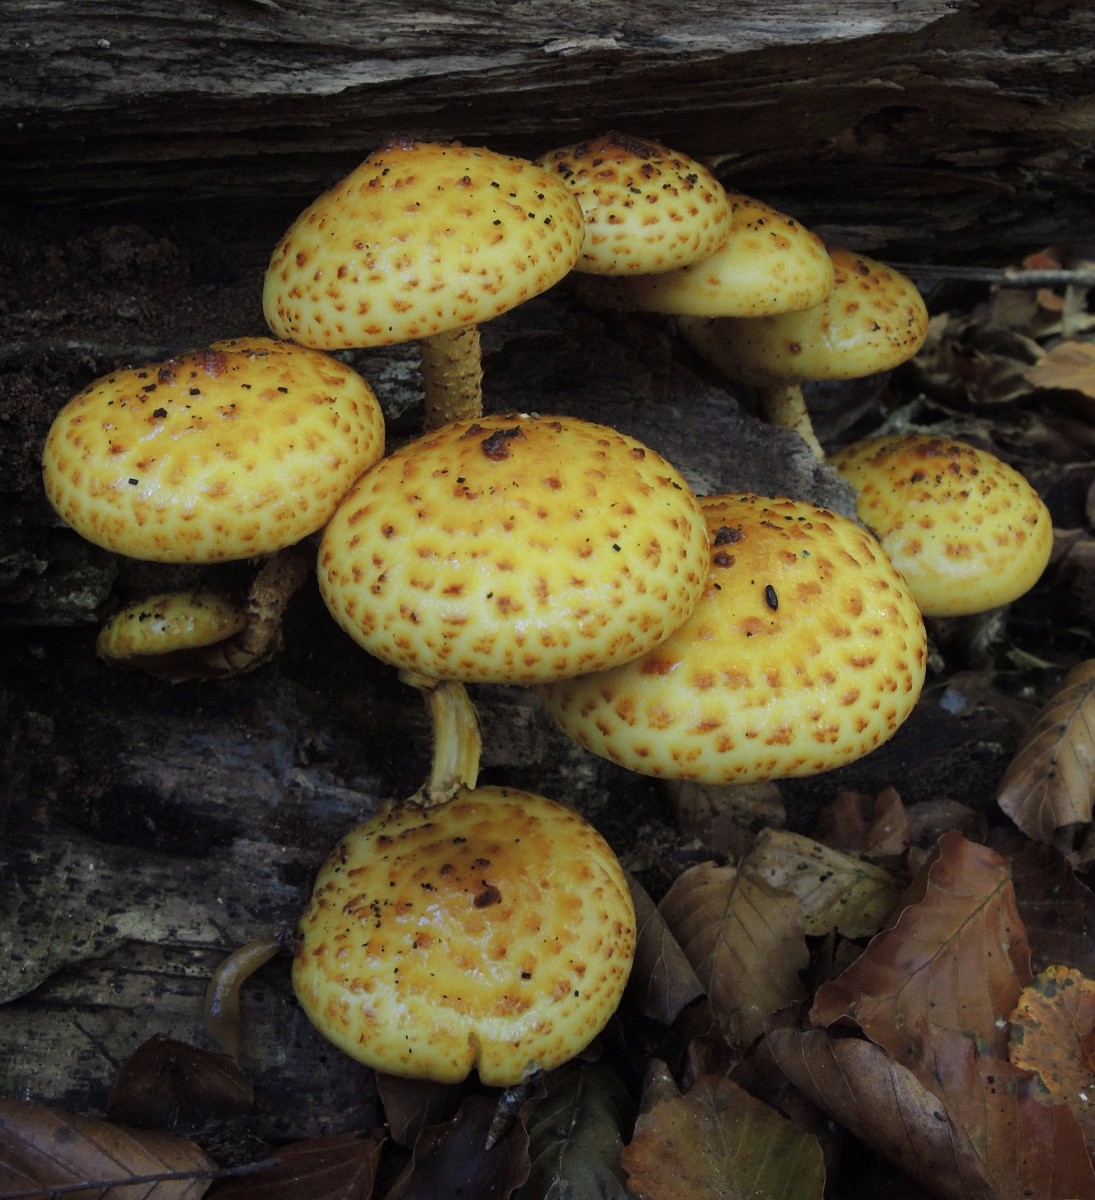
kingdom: Fungi
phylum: Basidiomycota
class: Agaricomycetes
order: Agaricales
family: Strophariaceae
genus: Pholiota
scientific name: Pholiota adiposa
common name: højtsiddende skælhat
